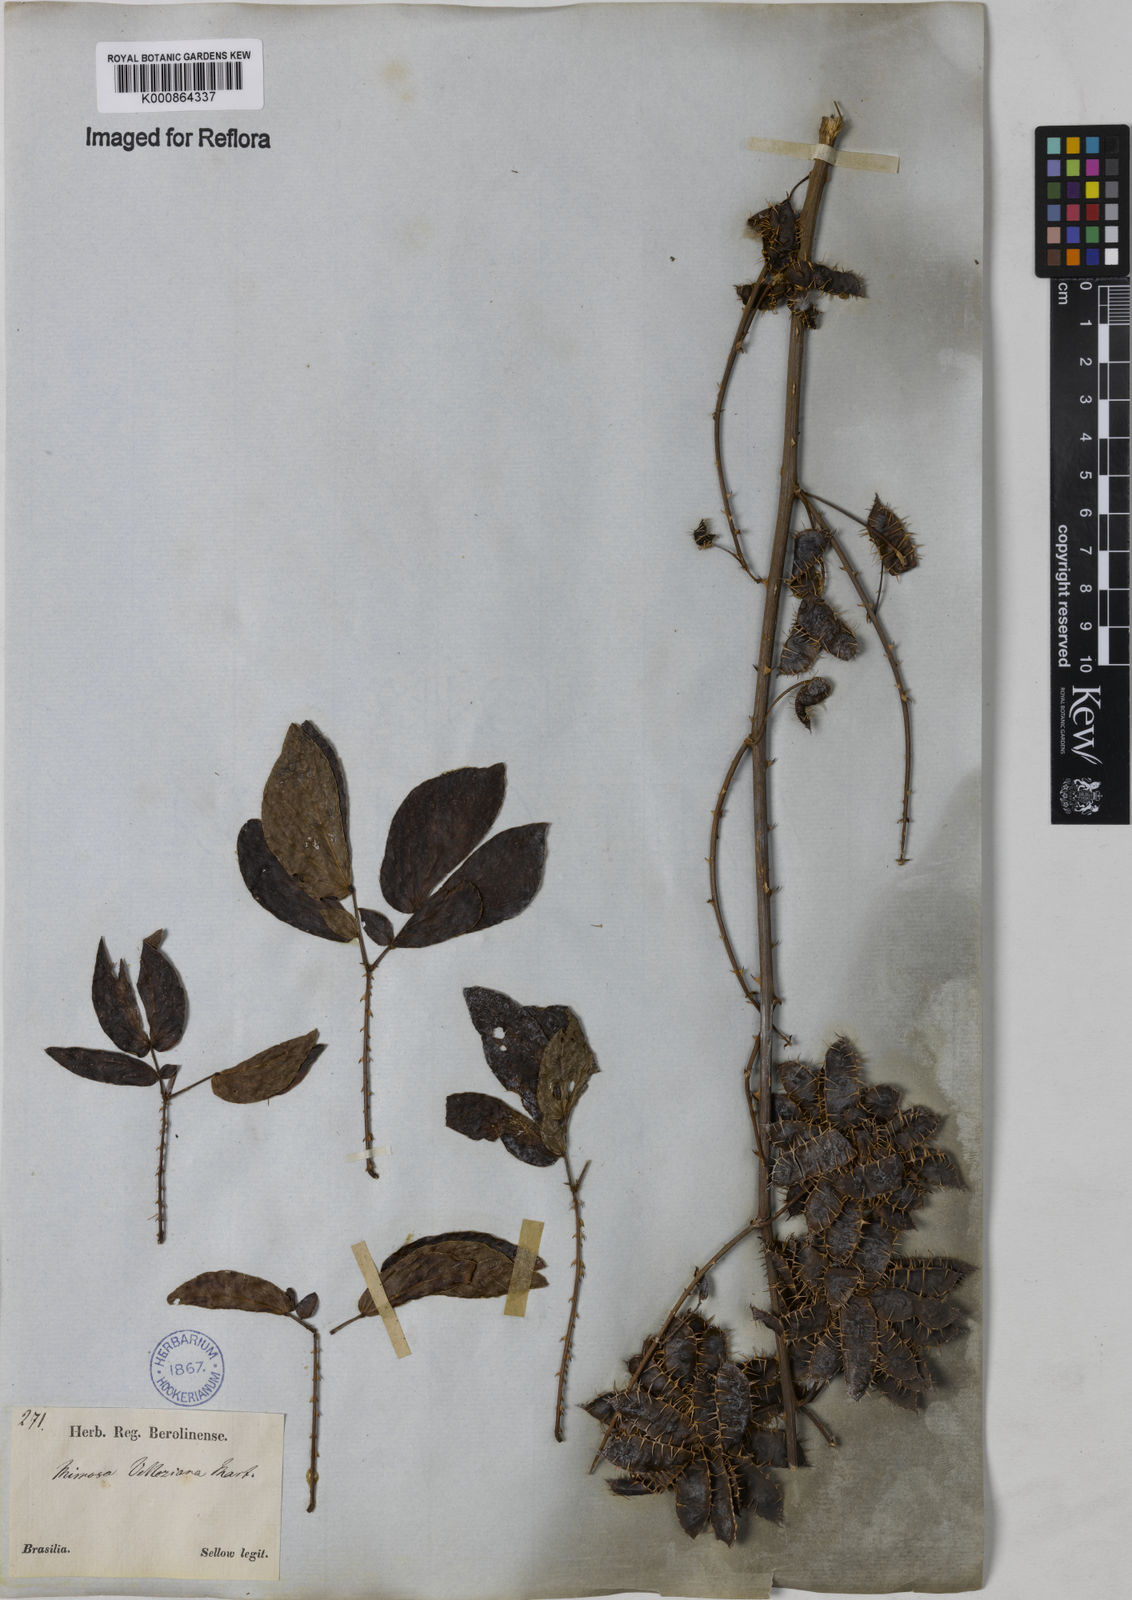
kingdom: Plantae
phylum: Tracheophyta
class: Magnoliopsida
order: Fabales
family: Fabaceae
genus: Mimosa
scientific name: Mimosa velloziana
